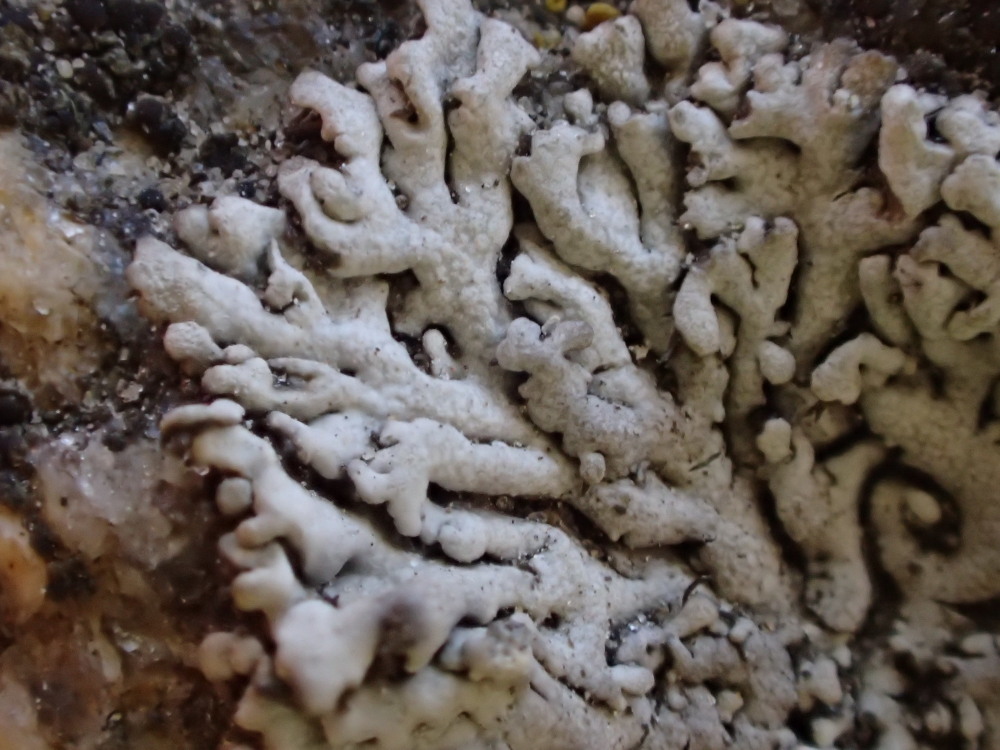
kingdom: Fungi
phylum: Ascomycota
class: Lecanoromycetes
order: Caliciales
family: Physciaceae
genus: Physcia
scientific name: Physcia caesia
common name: blågrå rosetlav
